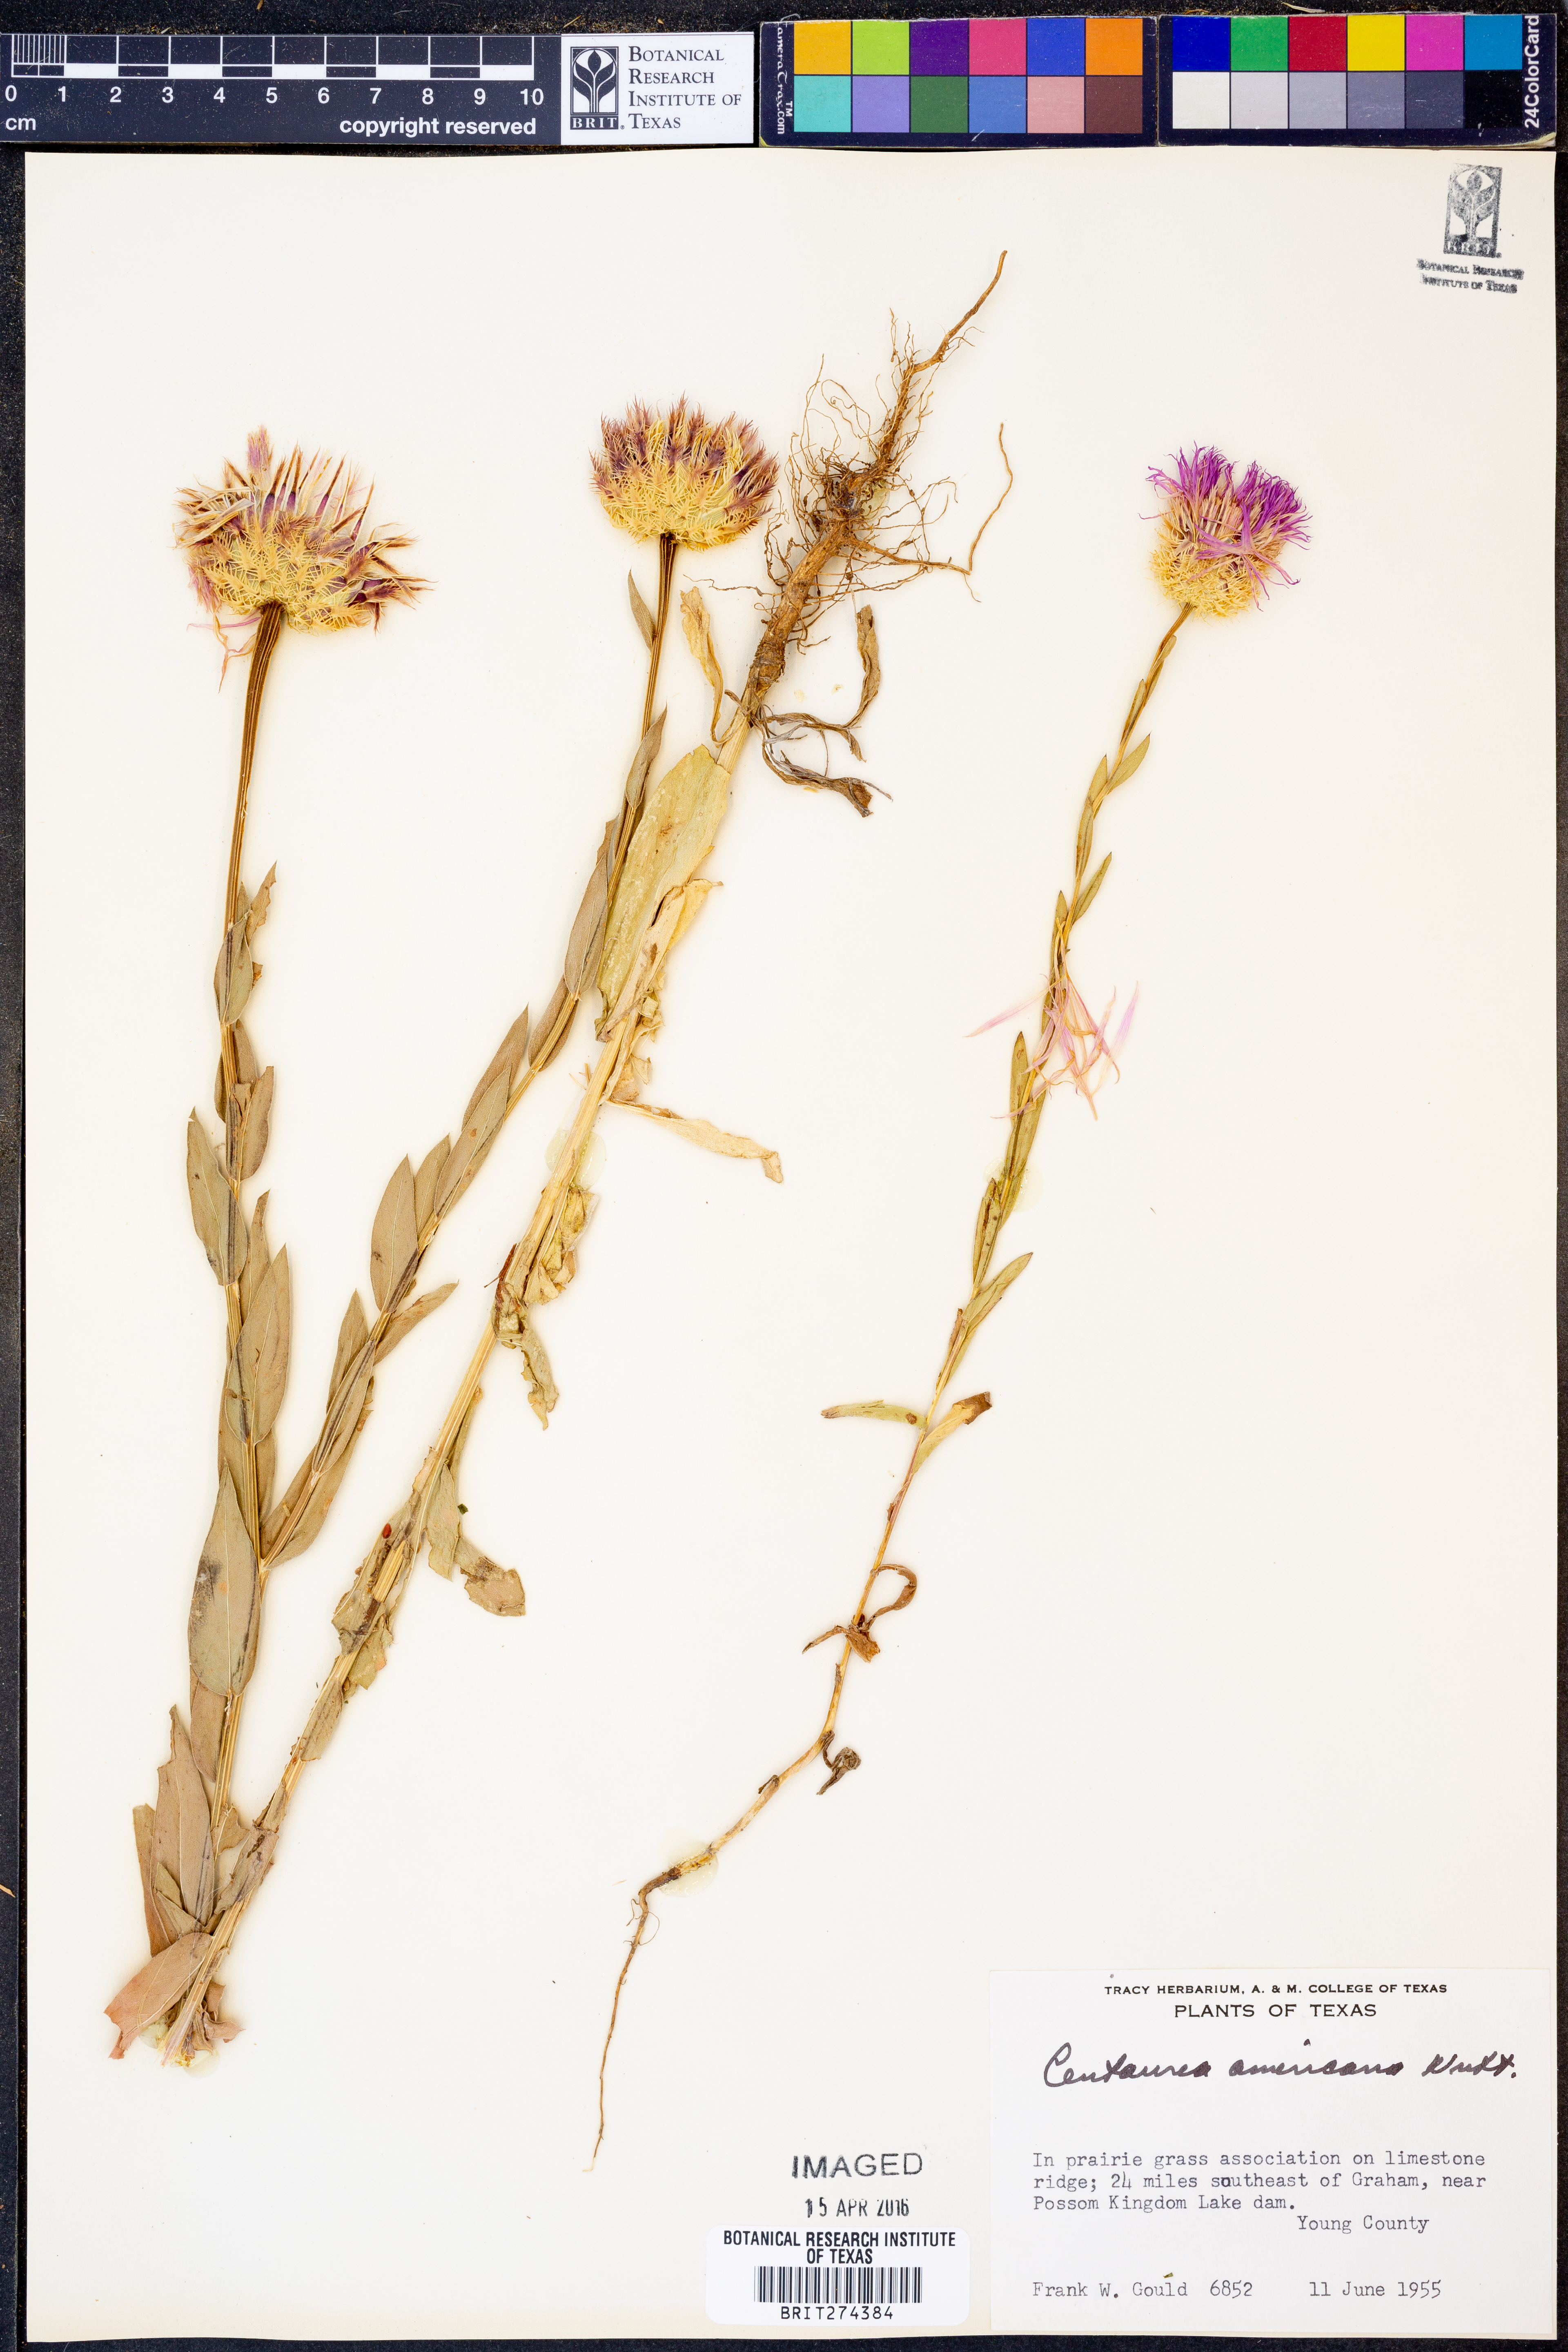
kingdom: Plantae
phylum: Tracheophyta
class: Magnoliopsida
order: Asterales
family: Asteraceae
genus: Plectocephalus
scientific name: Plectocephalus americanus
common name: American basket-flower
